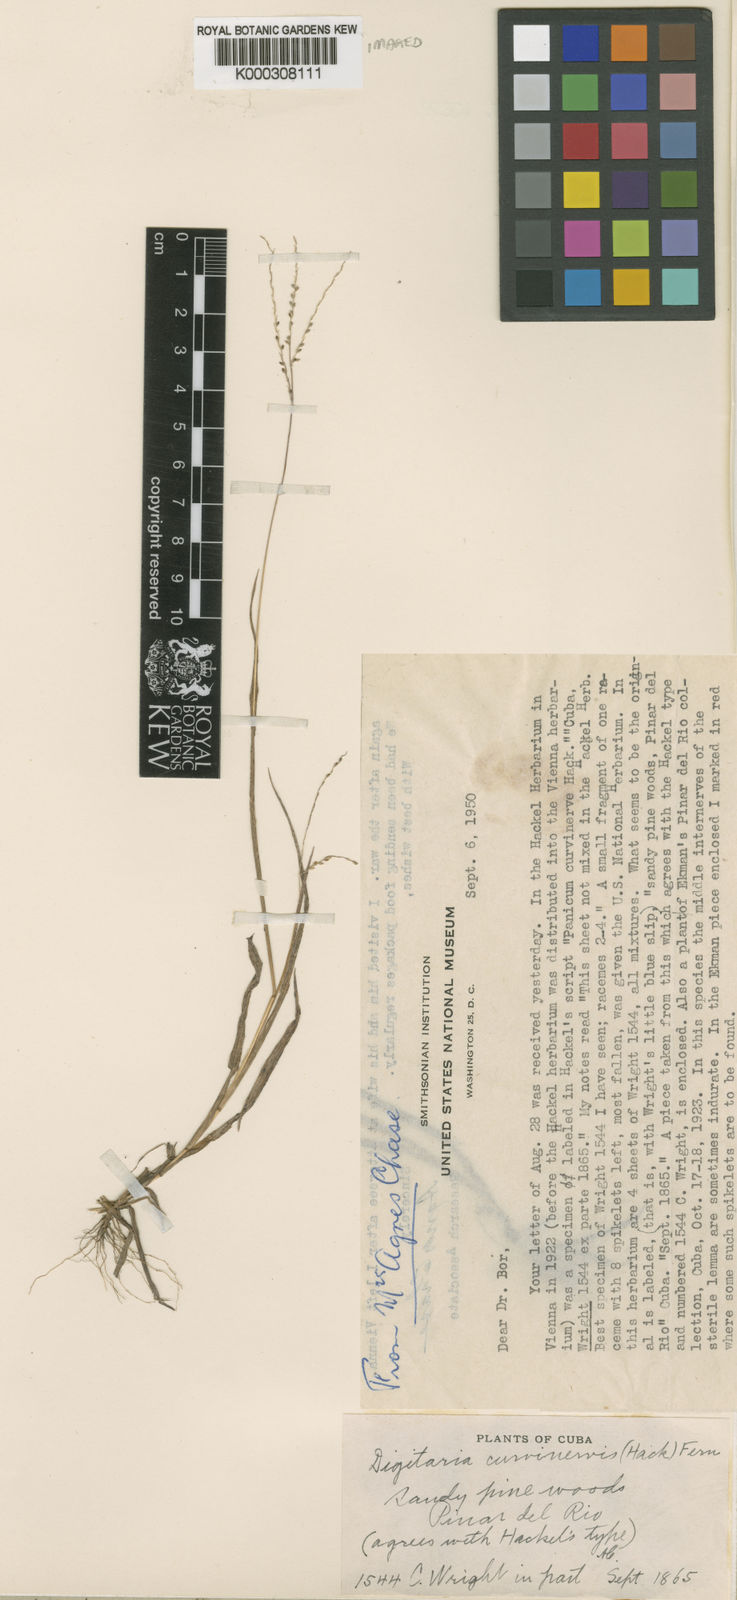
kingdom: Plantae
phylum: Tracheophyta
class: Liliopsida
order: Poales
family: Poaceae
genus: Digitaria
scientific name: Digitaria curvinervis
